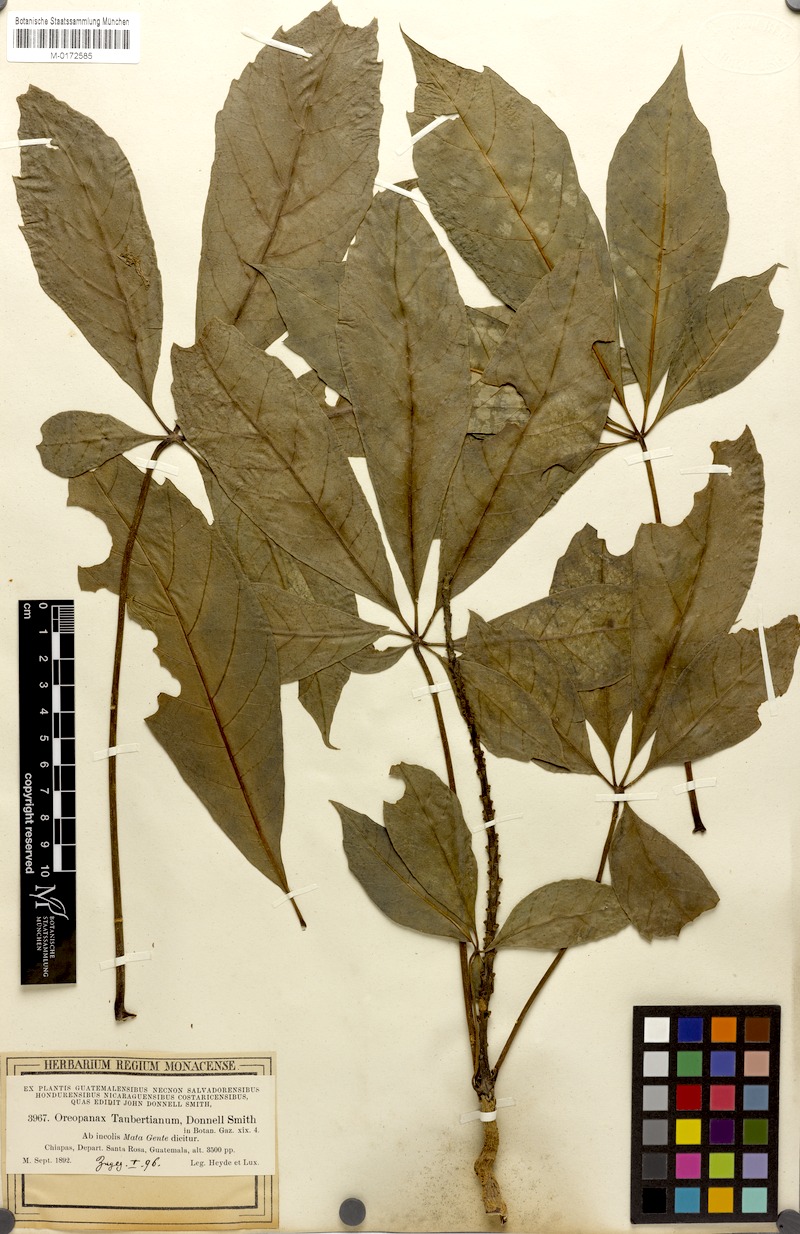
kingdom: Plantae
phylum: Tracheophyta
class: Magnoliopsida
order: Apiales
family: Araliaceae
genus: Oreopanax
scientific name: Oreopanax xalapensis
